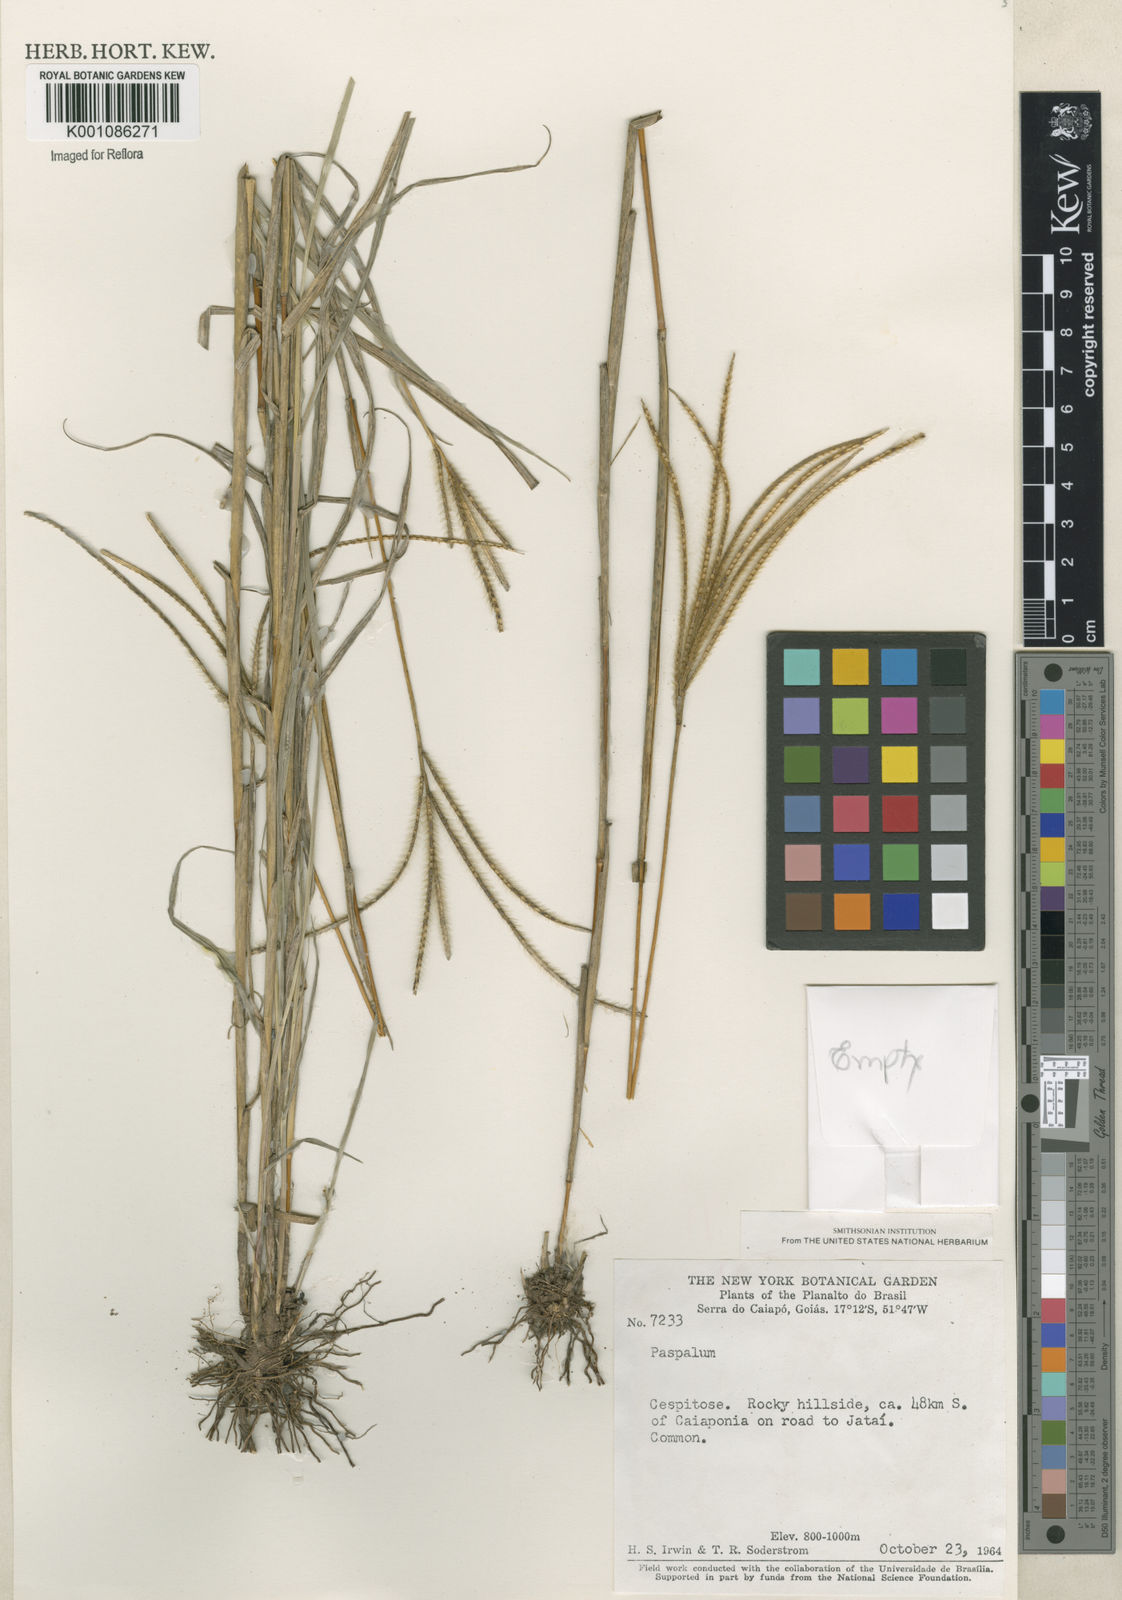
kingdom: Plantae
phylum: Tracheophyta
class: Liliopsida
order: Poales
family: Poaceae
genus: Axonopus
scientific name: Axonopus chrysoblepharis
